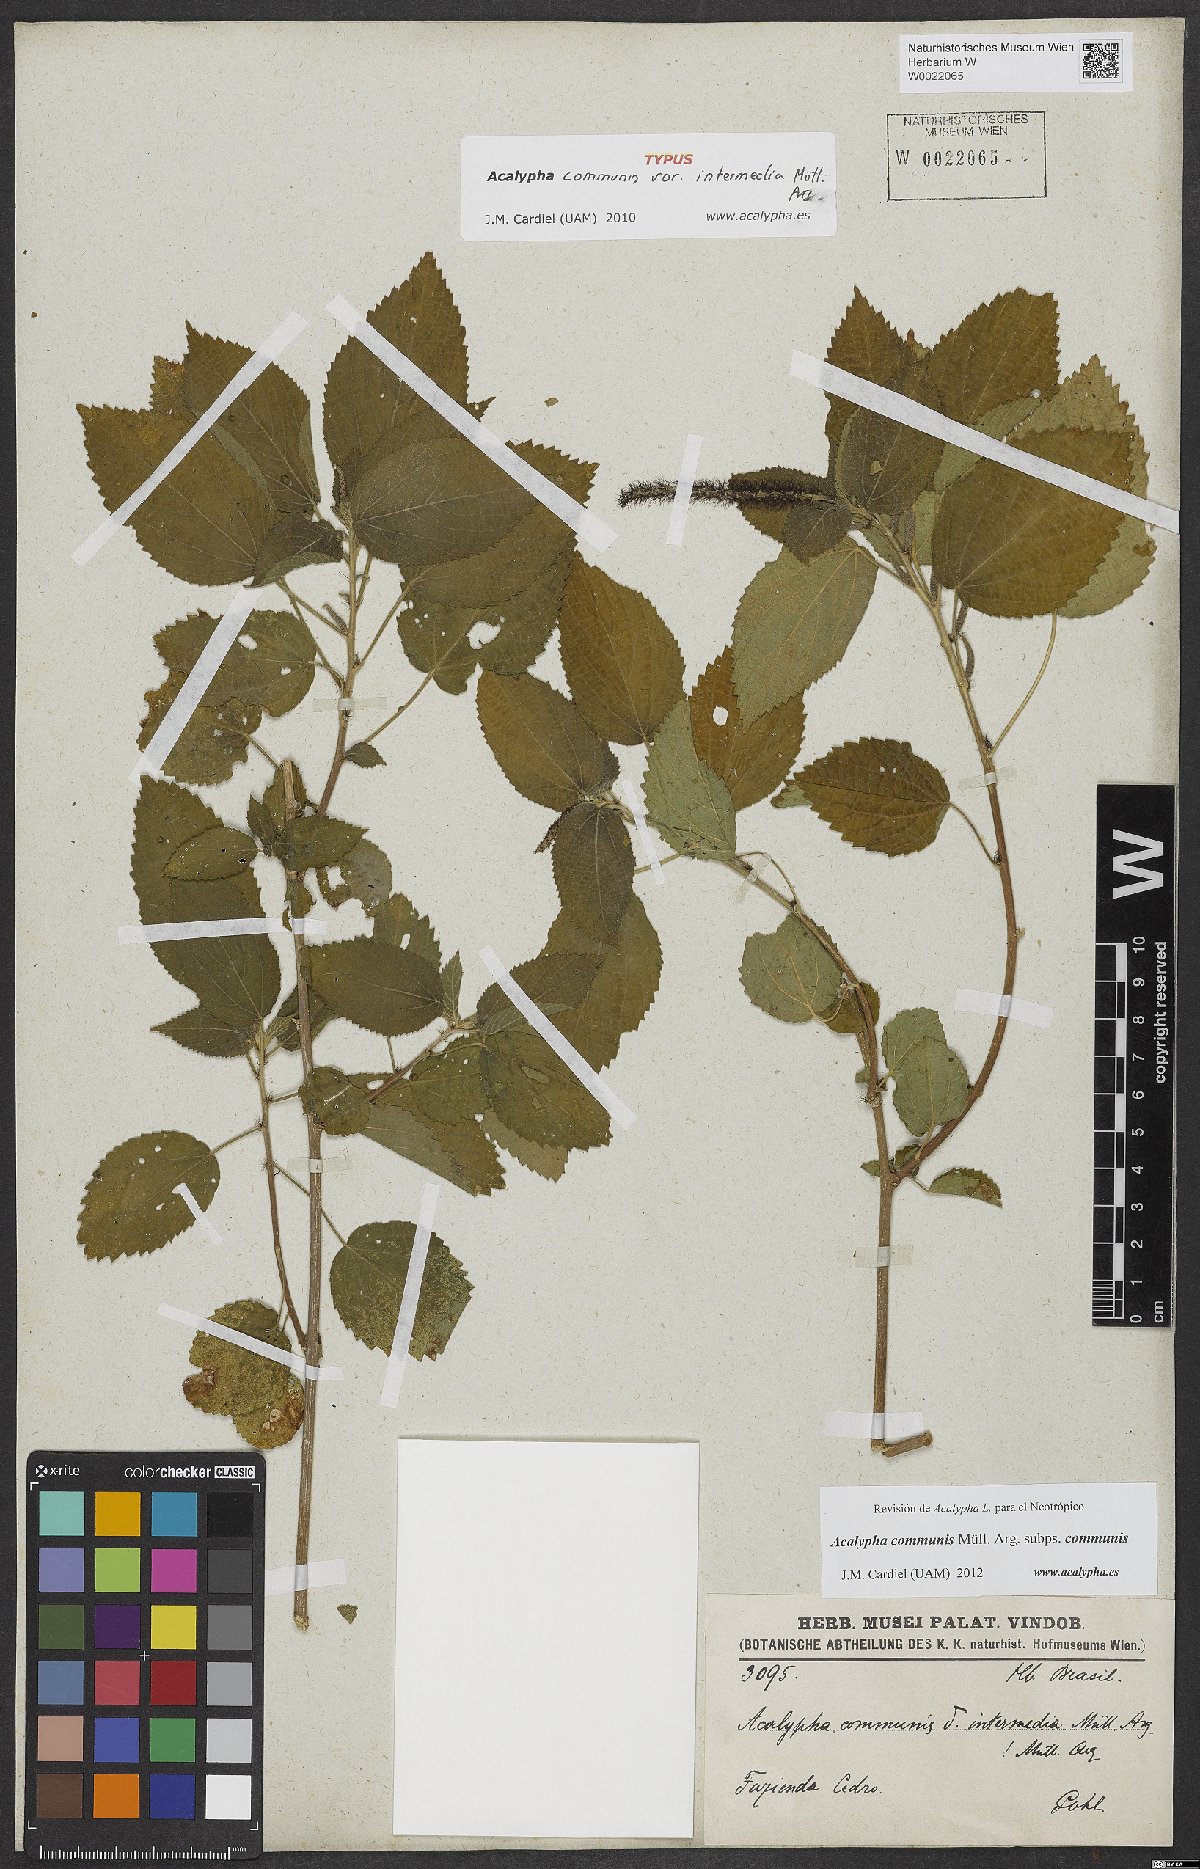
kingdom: Plantae
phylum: Tracheophyta
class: Magnoliopsida
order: Malpighiales
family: Euphorbiaceae
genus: Acalypha
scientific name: Acalypha communis
